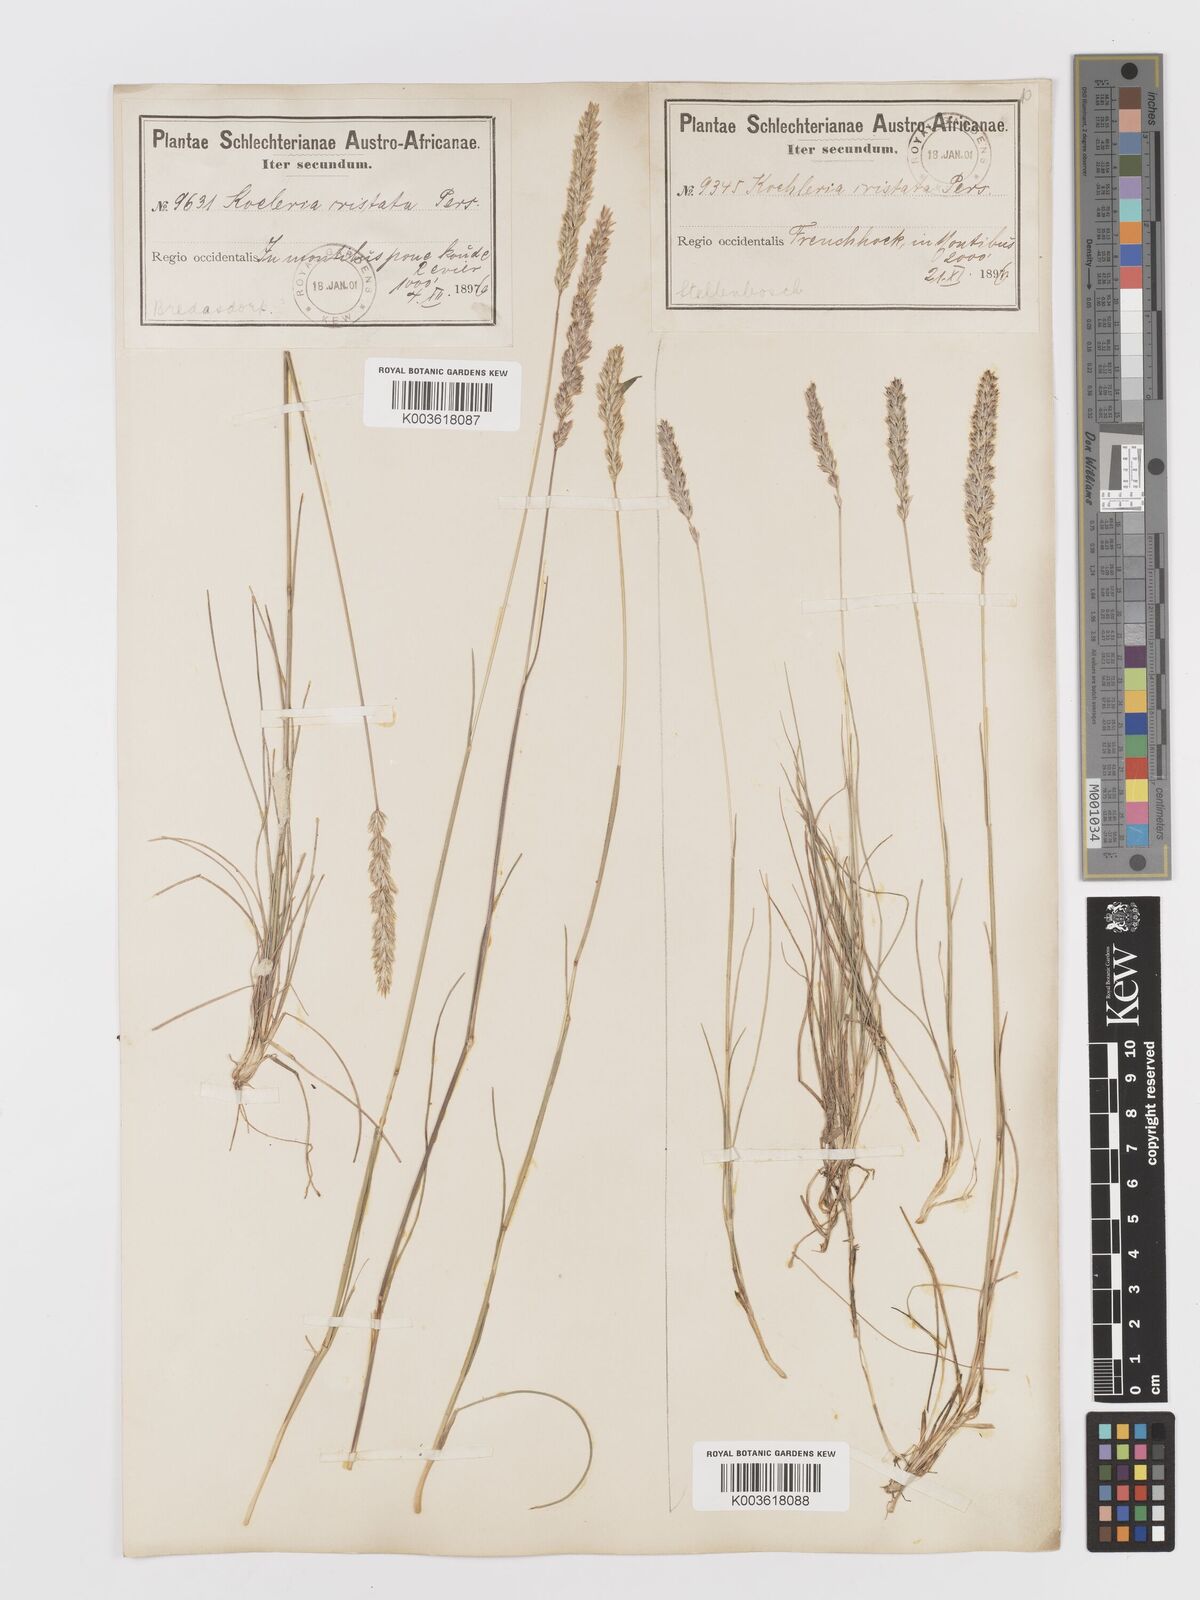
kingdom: Plantae
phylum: Tracheophyta
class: Liliopsida
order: Poales
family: Poaceae
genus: Koeleria
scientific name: Koeleria capensis
